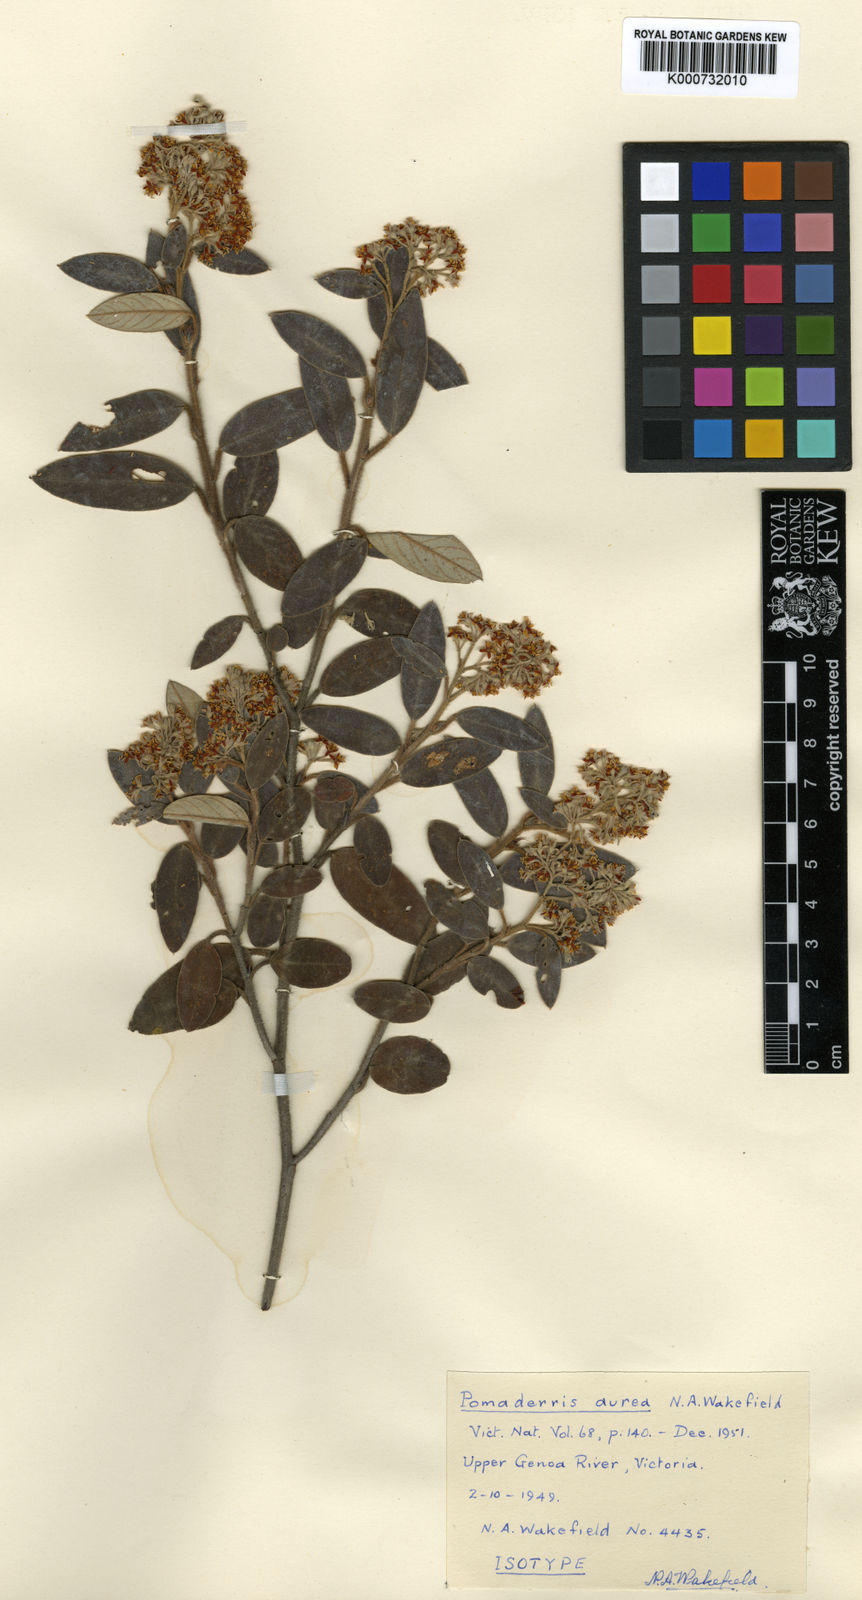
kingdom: Plantae
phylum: Tracheophyta
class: Magnoliopsida
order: Rosales
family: Rhamnaceae
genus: Pomaderris
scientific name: Pomaderris aurea
